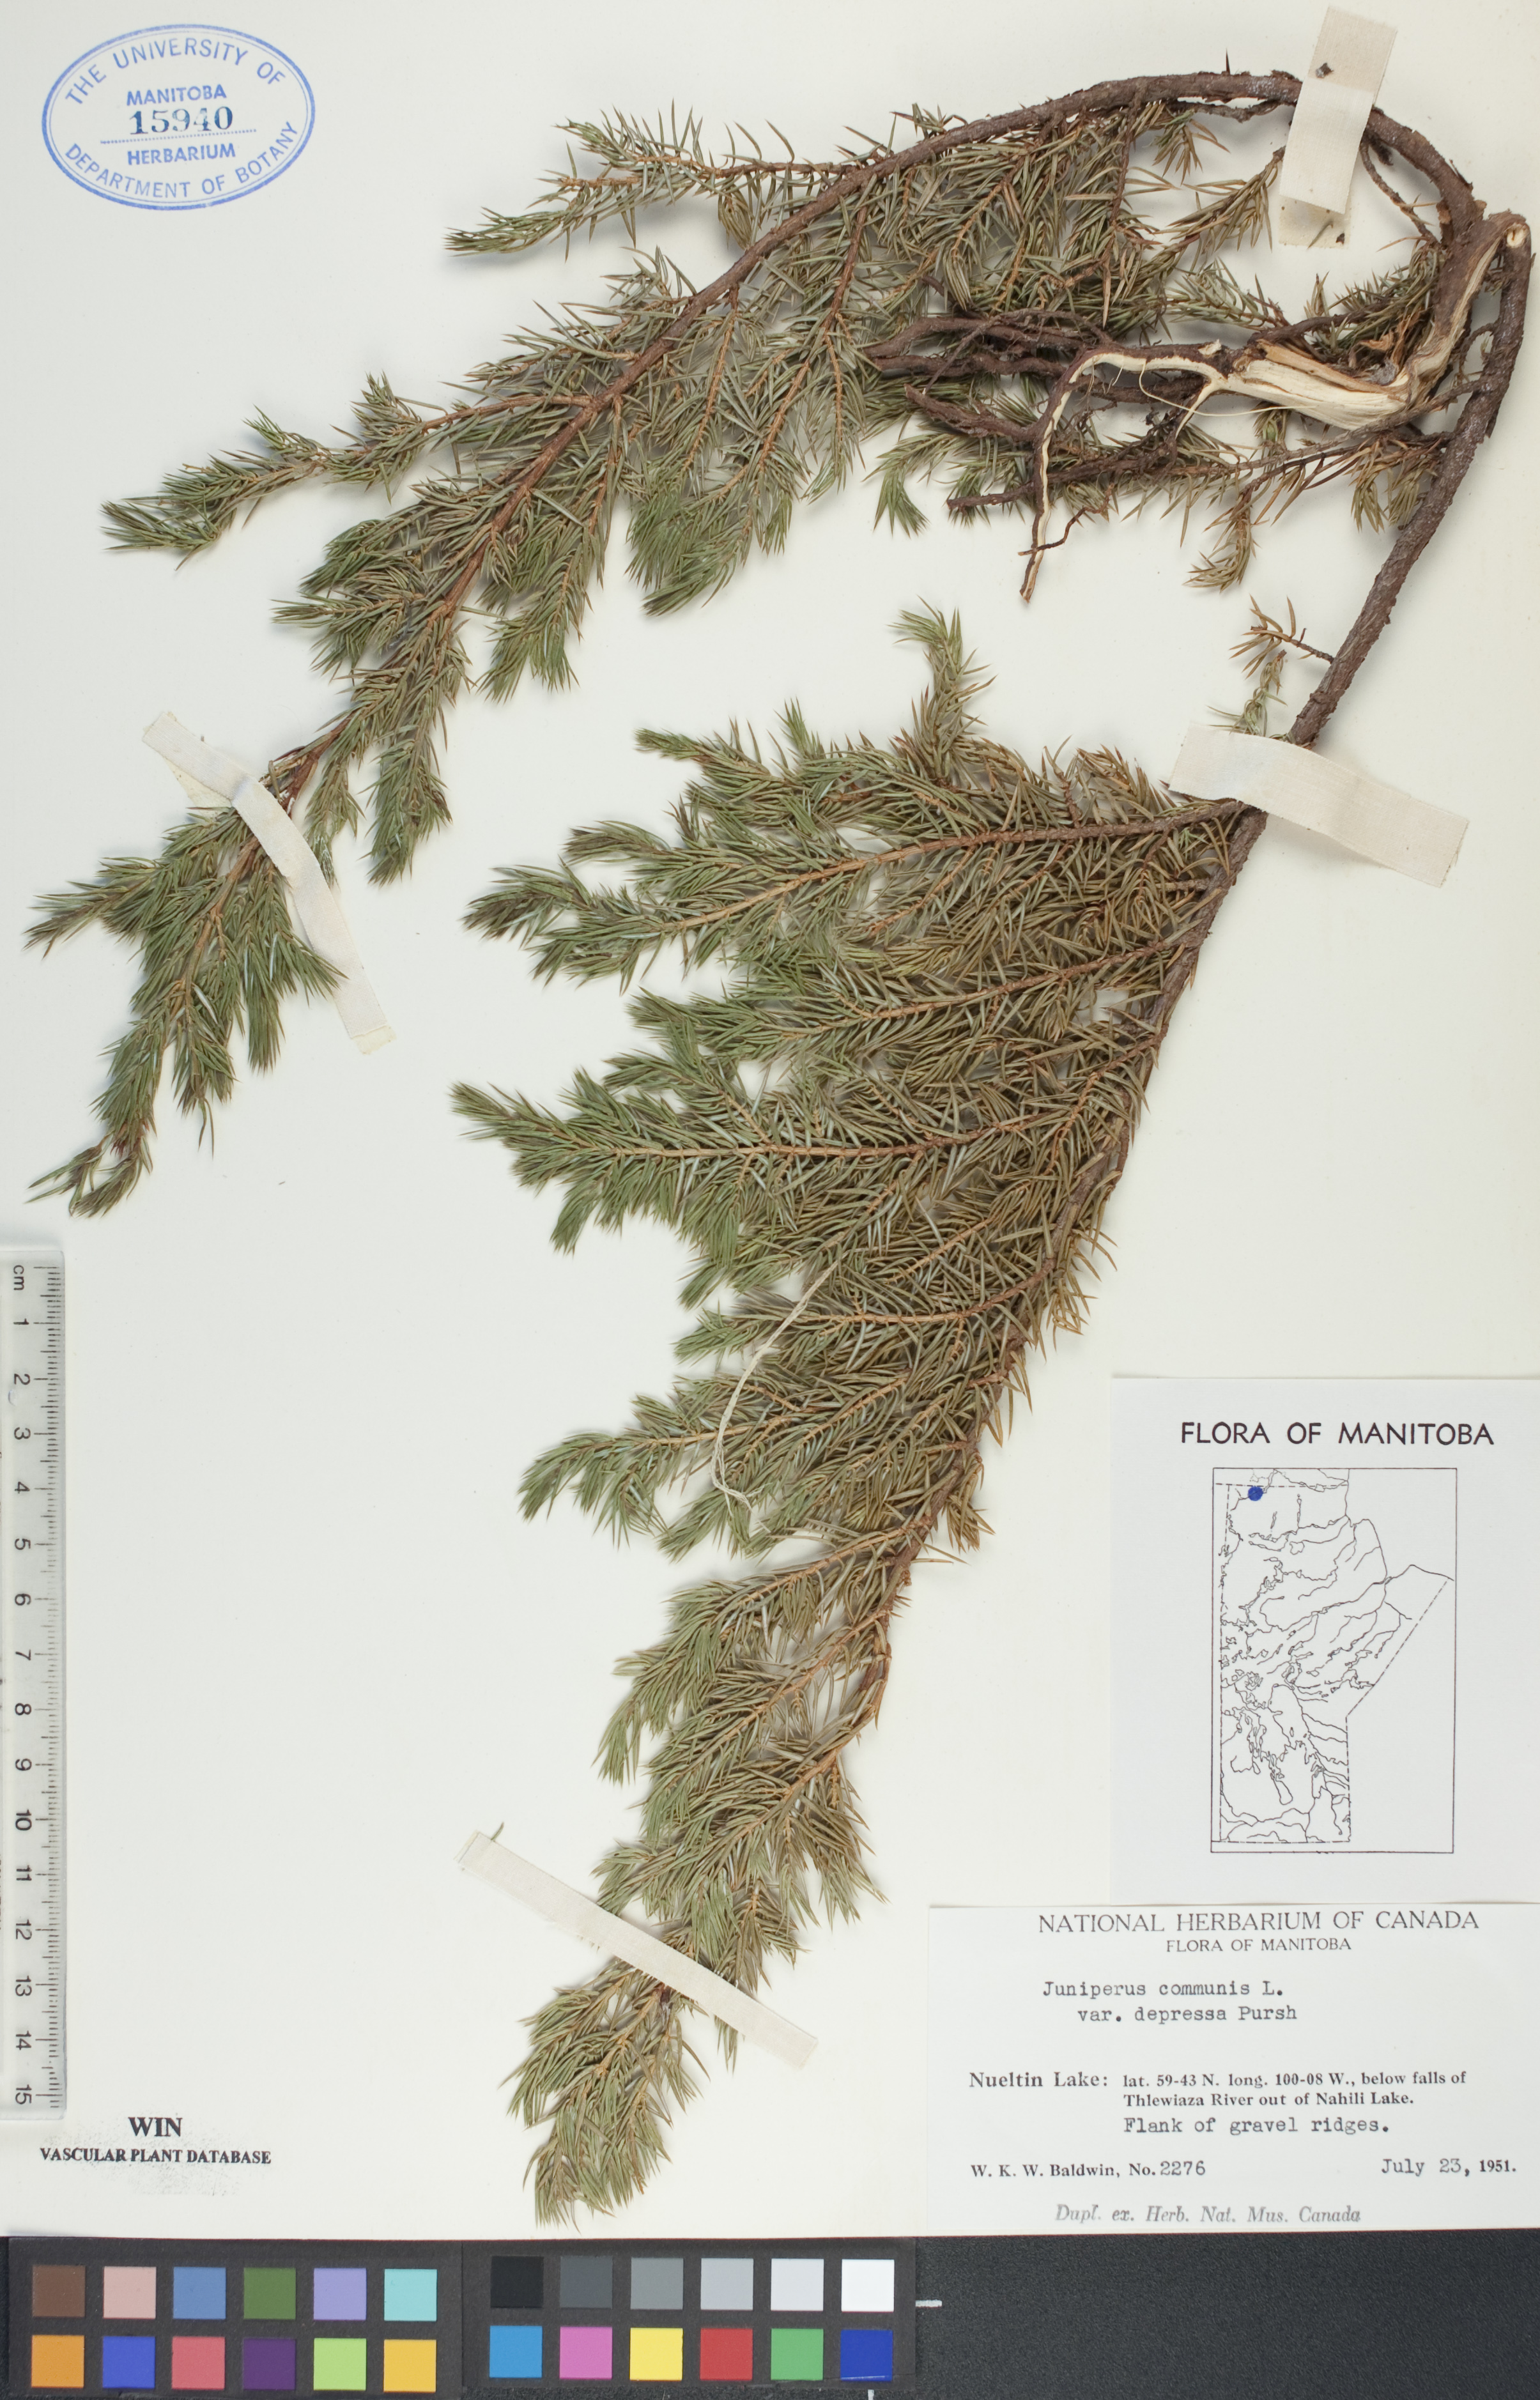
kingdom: Plantae
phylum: Tracheophyta
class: Pinopsida
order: Pinales
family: Cupressaceae
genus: Juniperus
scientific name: Juniperus communis
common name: Common juniper
